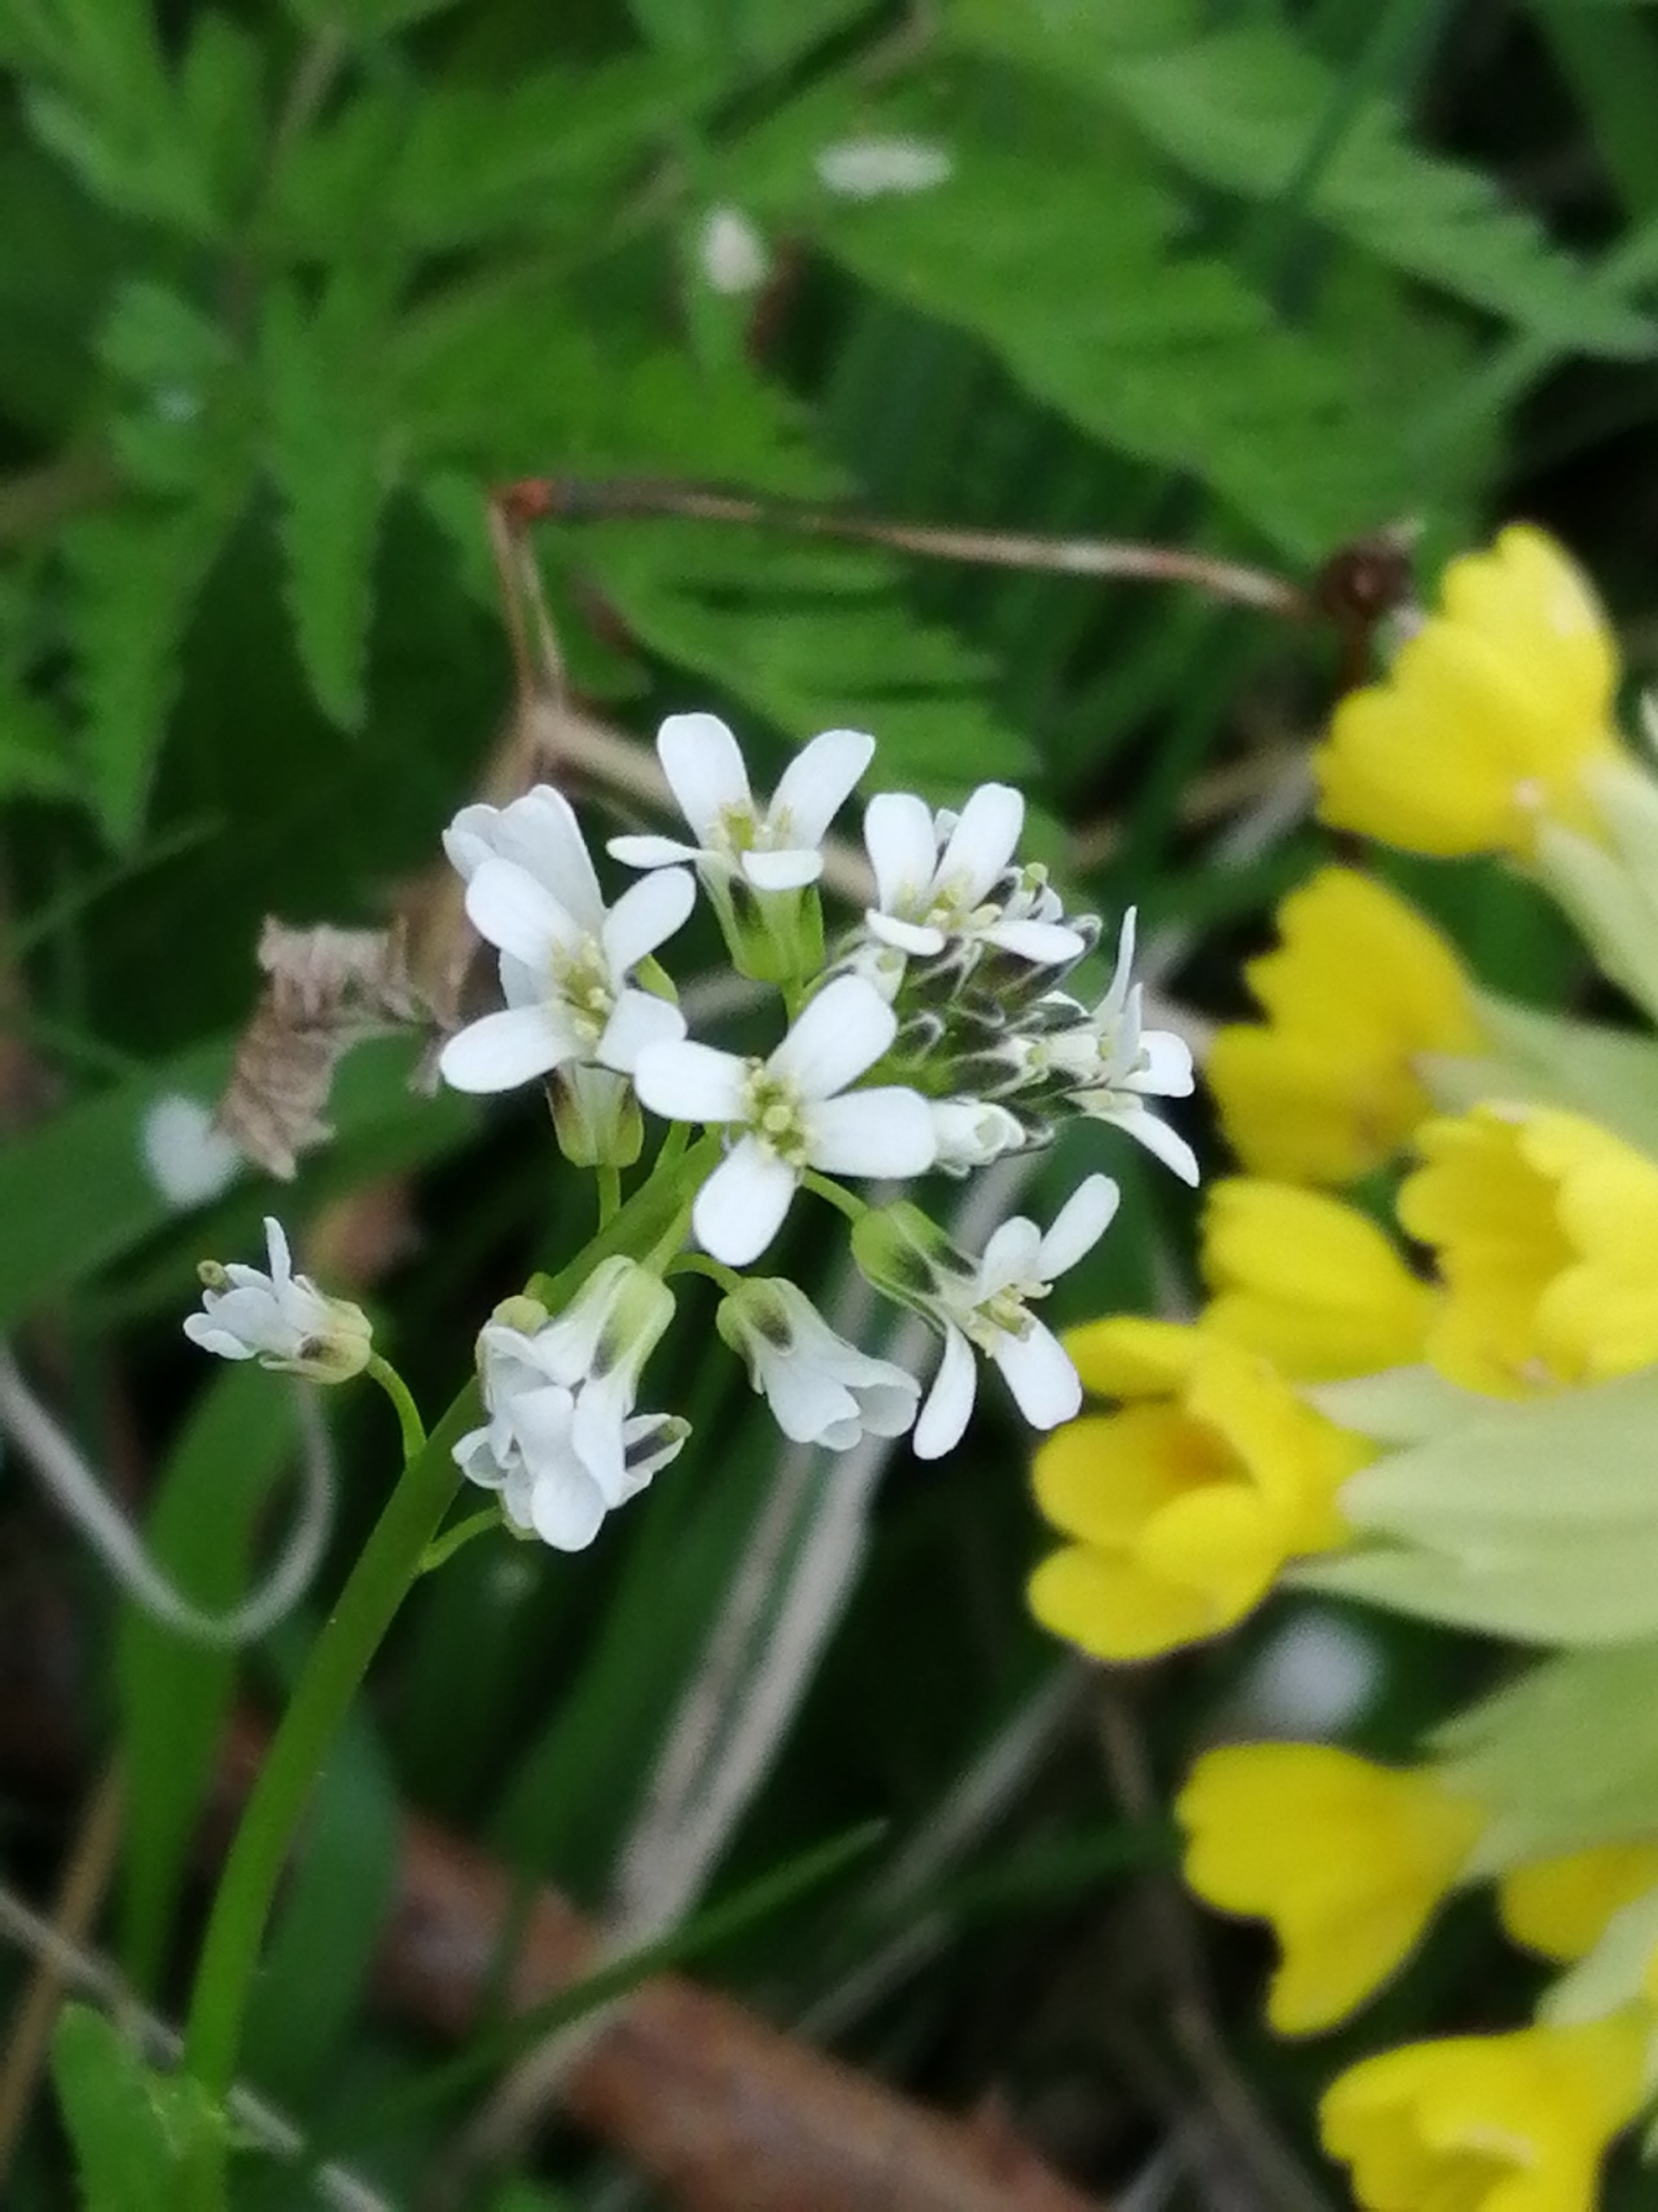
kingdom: Plantae
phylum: Tracheophyta
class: Magnoliopsida
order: Brassicales
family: Brassicaceae
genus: Arabis
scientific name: Arabis hirsuta
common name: Stivhåret kalkkarse
